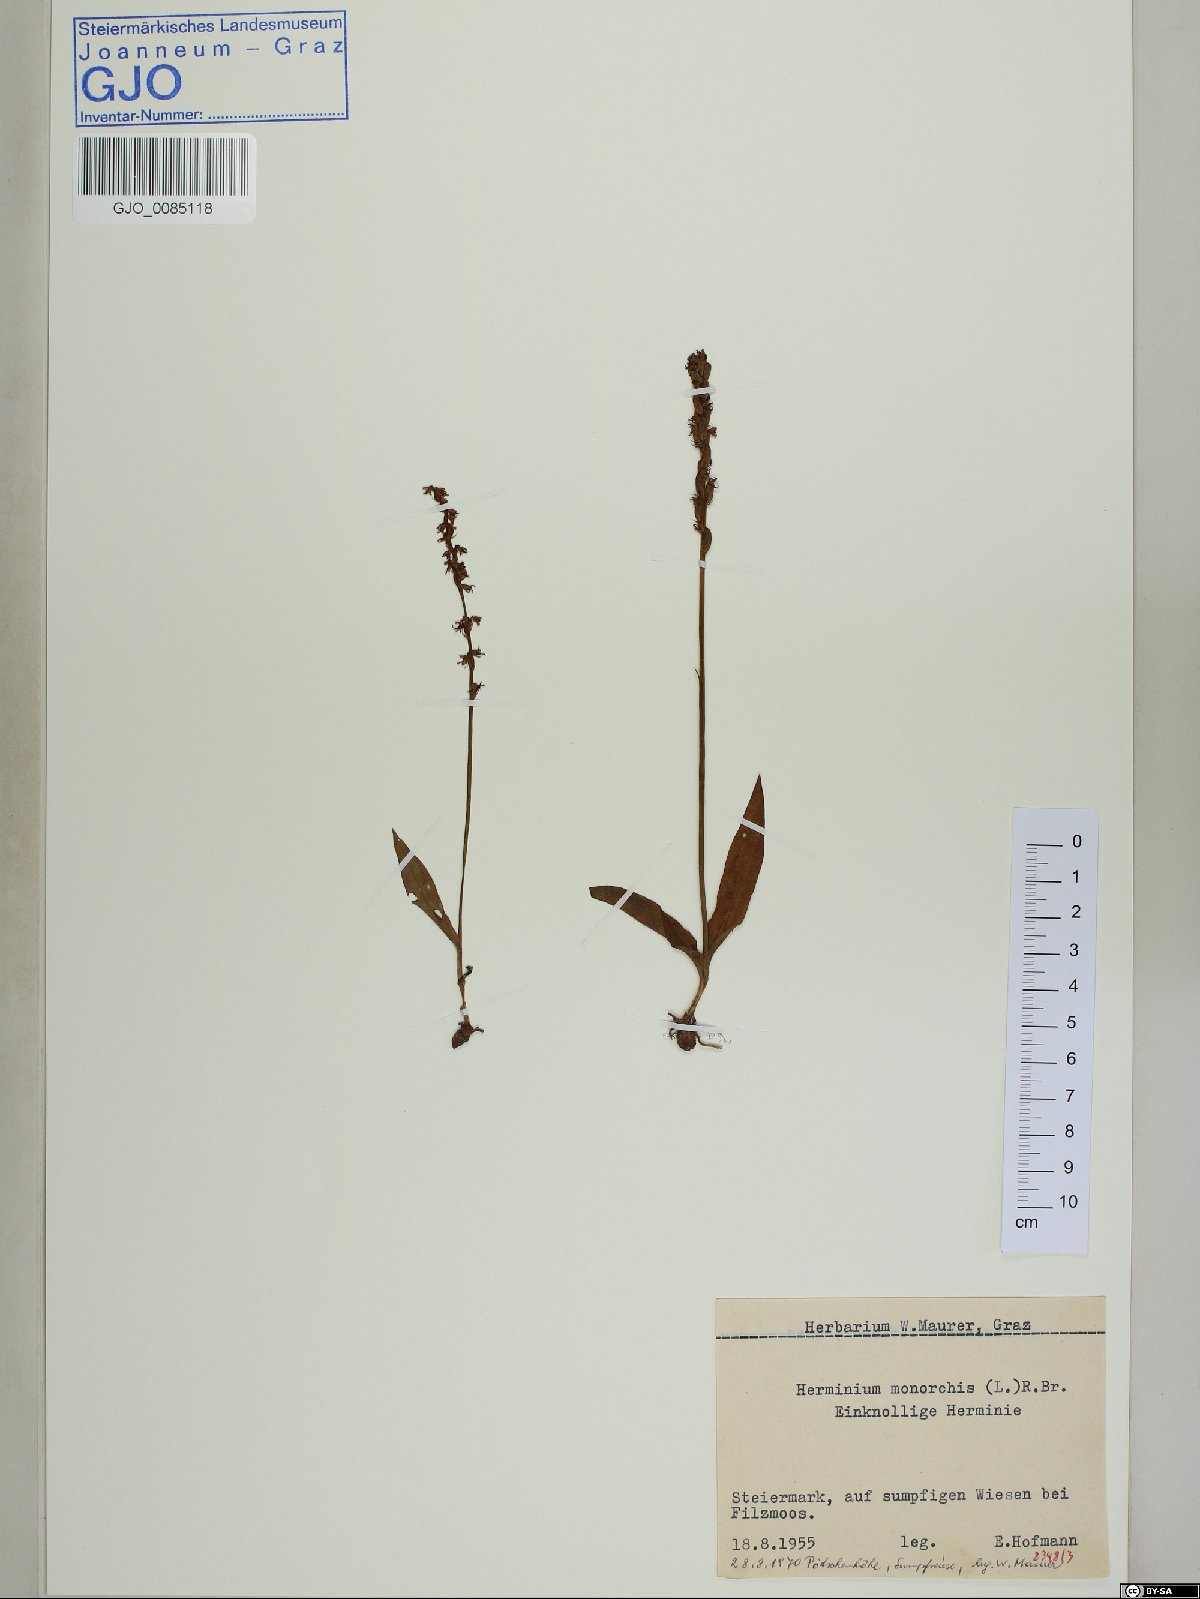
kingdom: Plantae
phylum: Tracheophyta
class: Liliopsida
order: Asparagales
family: Orchidaceae
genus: Herminium
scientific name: Herminium monorchis
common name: Musk orchid
